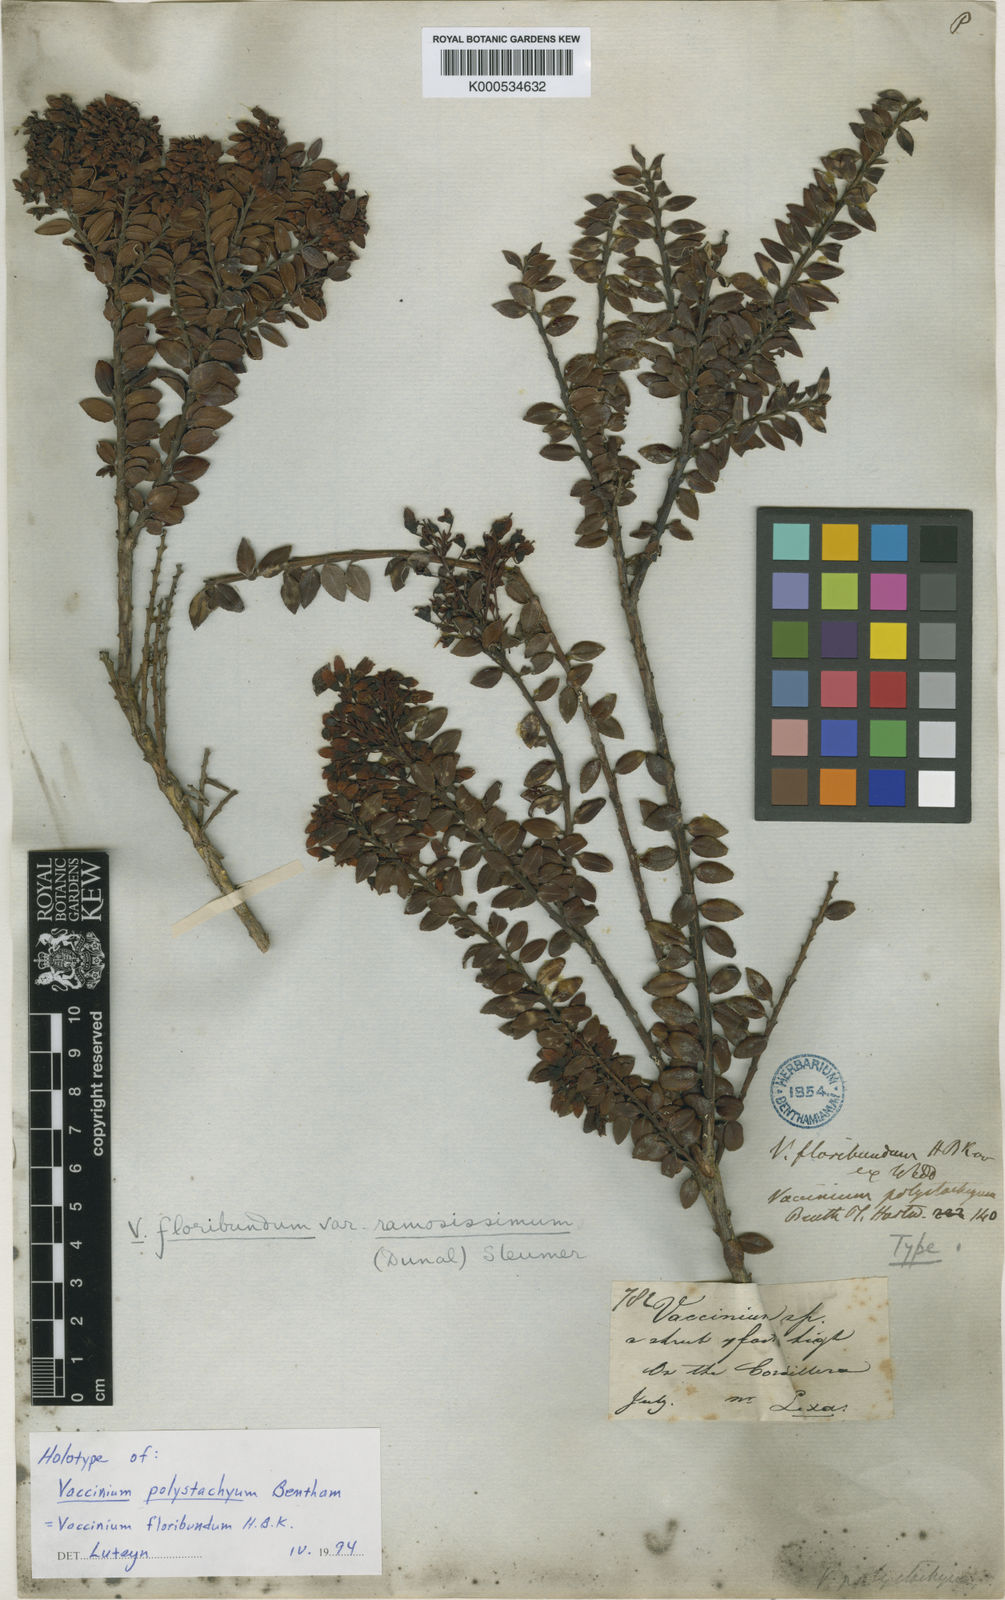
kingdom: Plantae
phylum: Tracheophyta
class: Magnoliopsida
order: Ericales
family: Ericaceae
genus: Vaccinium
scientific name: Vaccinium floribundum
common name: Colombian blueberry
